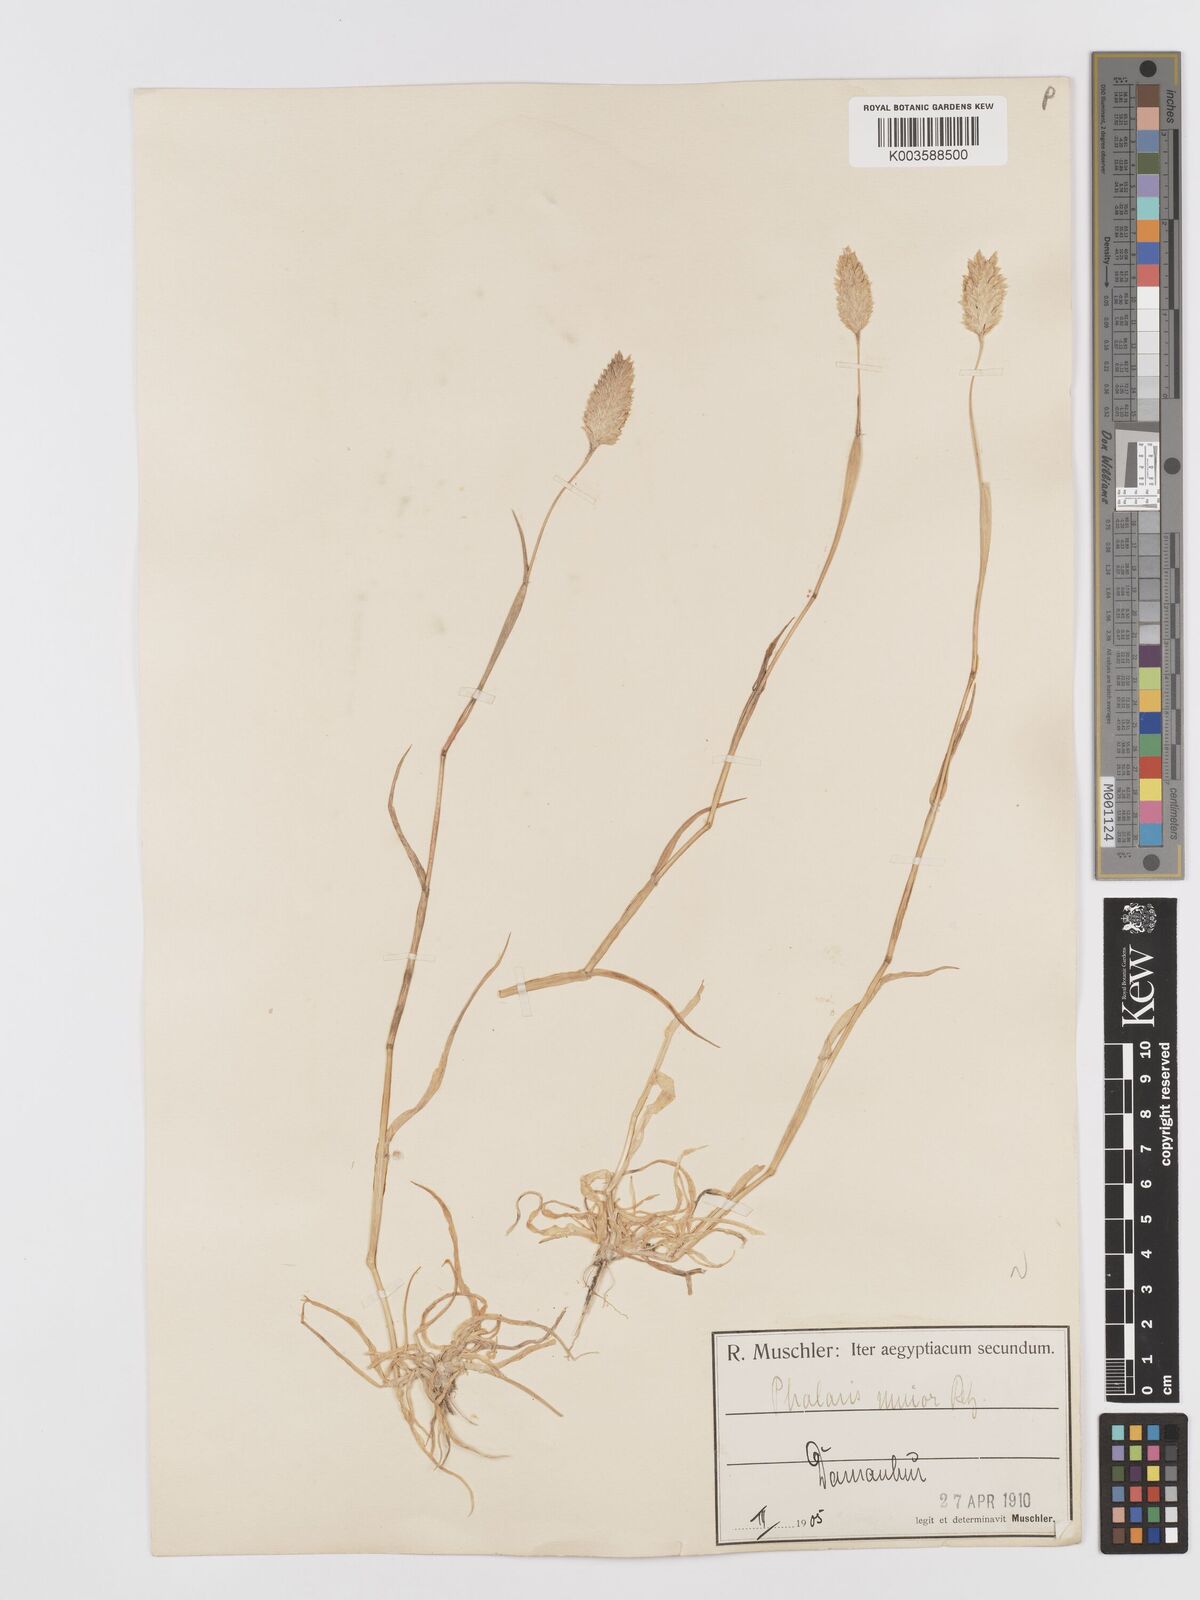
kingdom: Plantae
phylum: Tracheophyta
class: Liliopsida
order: Poales
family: Poaceae
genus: Phalaris
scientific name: Phalaris minor
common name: Littleseed canarygrass
